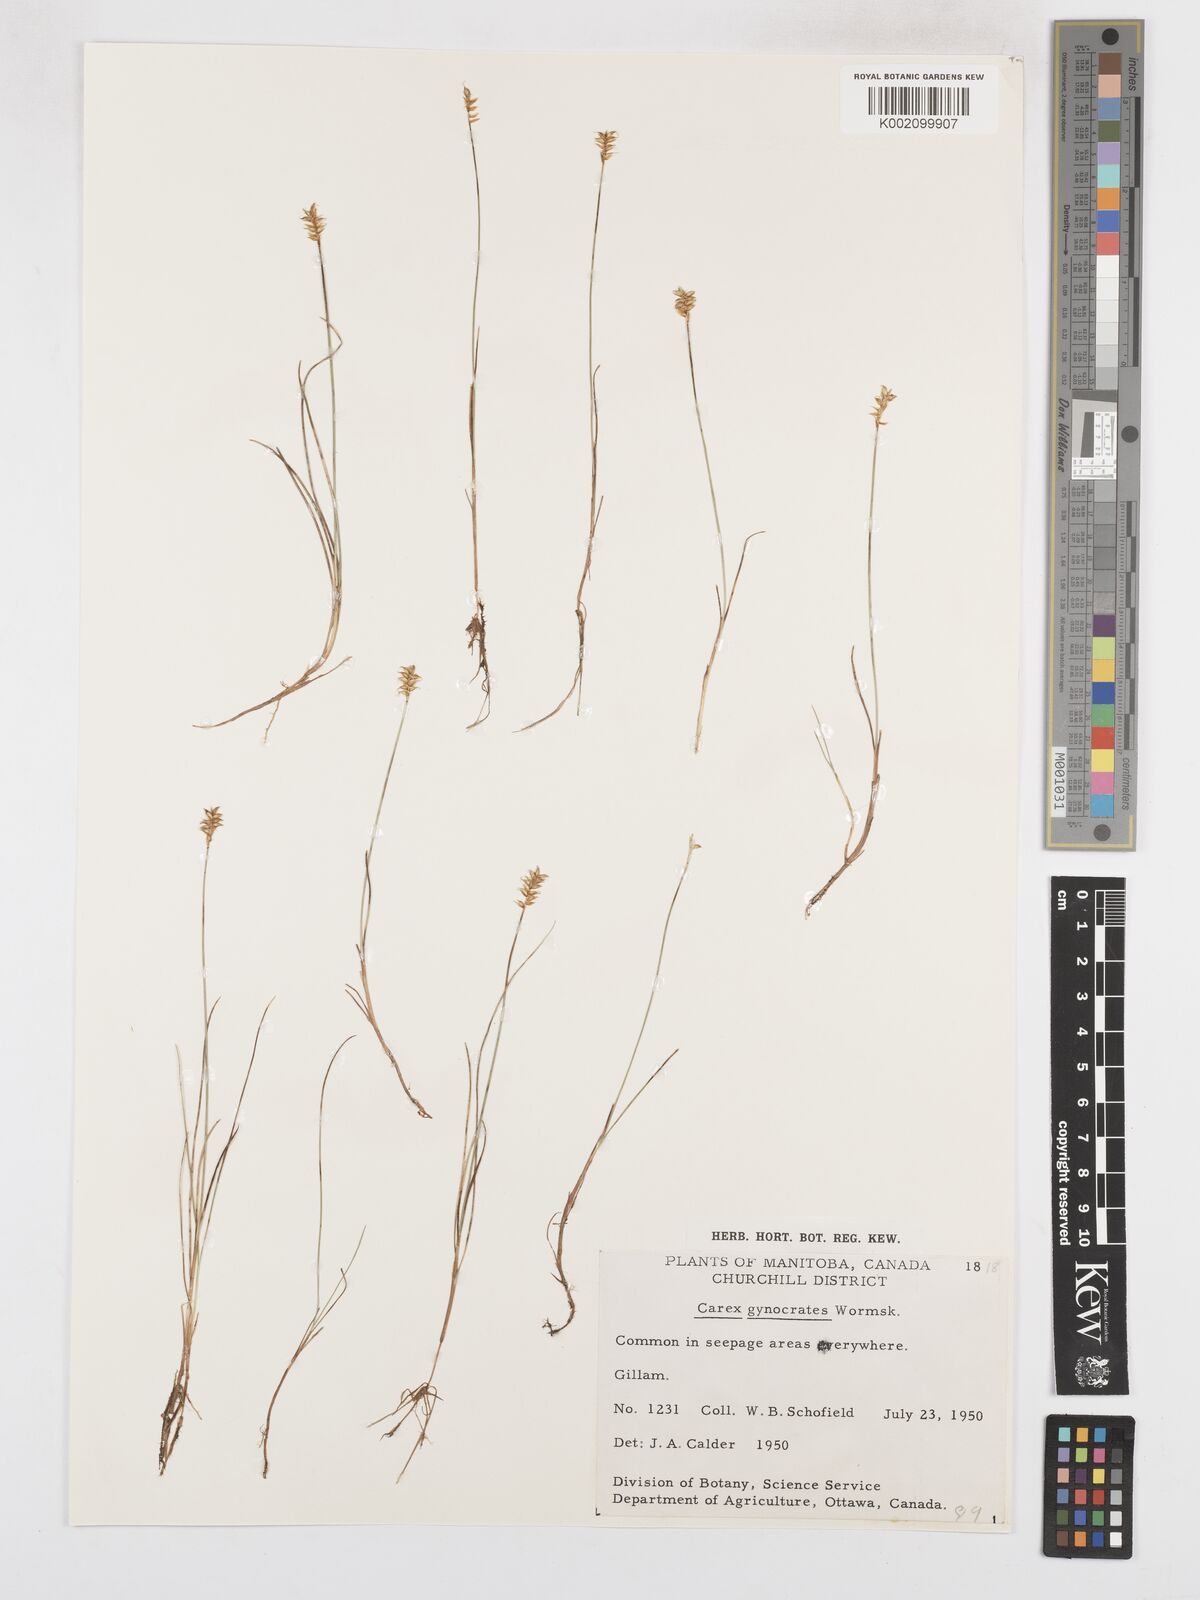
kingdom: Plantae
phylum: Tracheophyta
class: Liliopsida
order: Poales
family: Cyperaceae
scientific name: Cyperaceae
